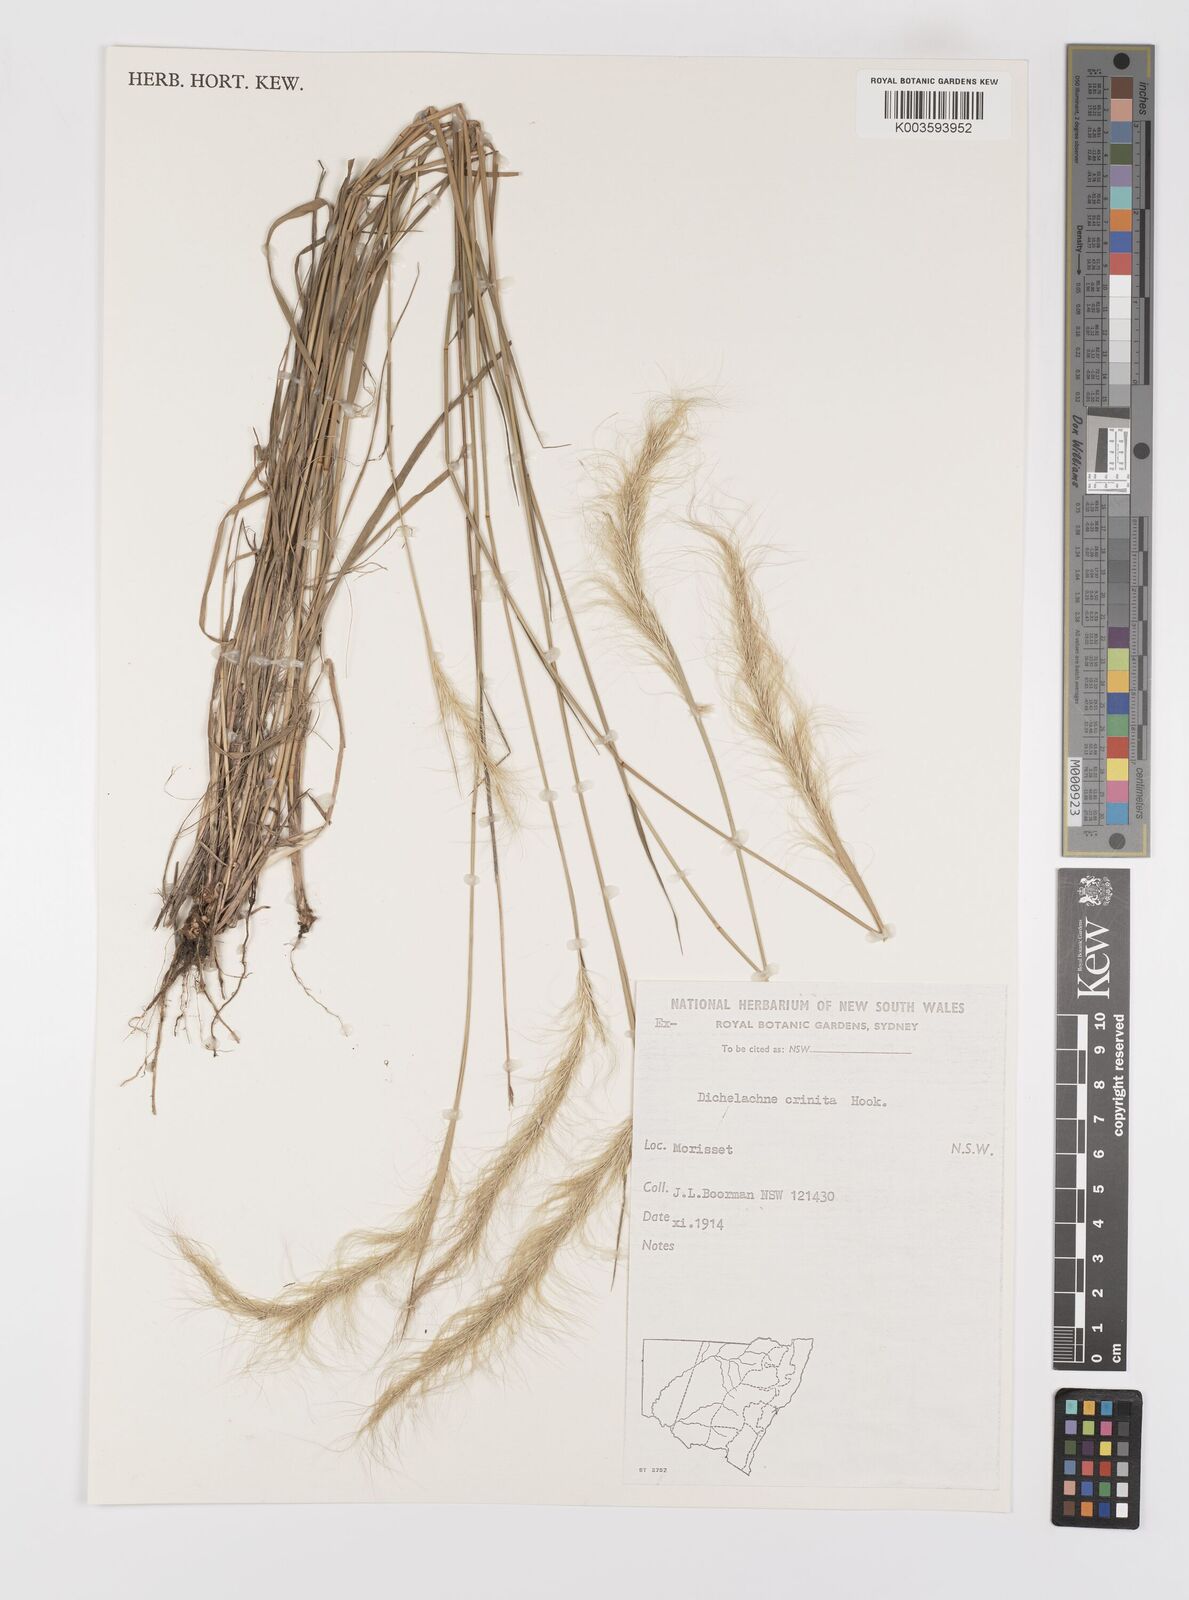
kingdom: Plantae
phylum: Tracheophyta
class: Liliopsida
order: Poales
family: Poaceae
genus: Dichelachne
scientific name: Dichelachne
